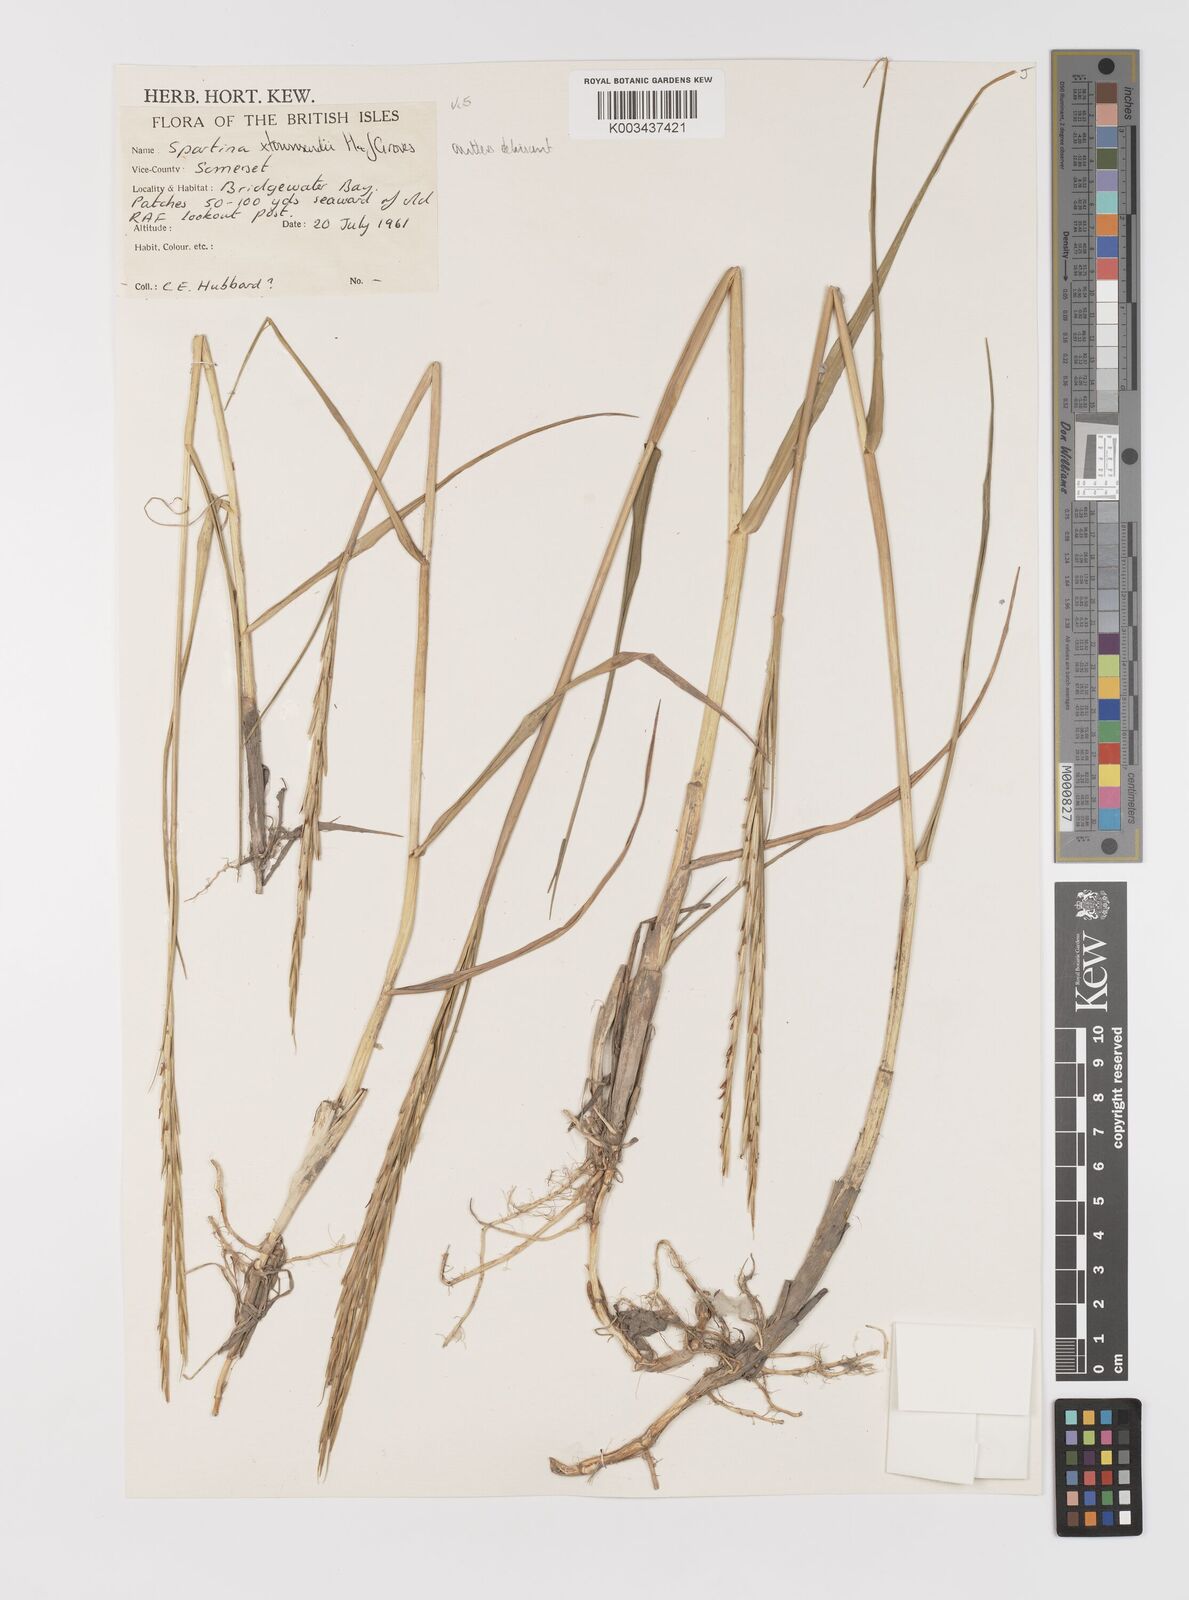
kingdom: Plantae
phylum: Tracheophyta
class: Liliopsida
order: Poales
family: Poaceae
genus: Sporobolus
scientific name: Sporobolus anglicus
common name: English cordgrass
